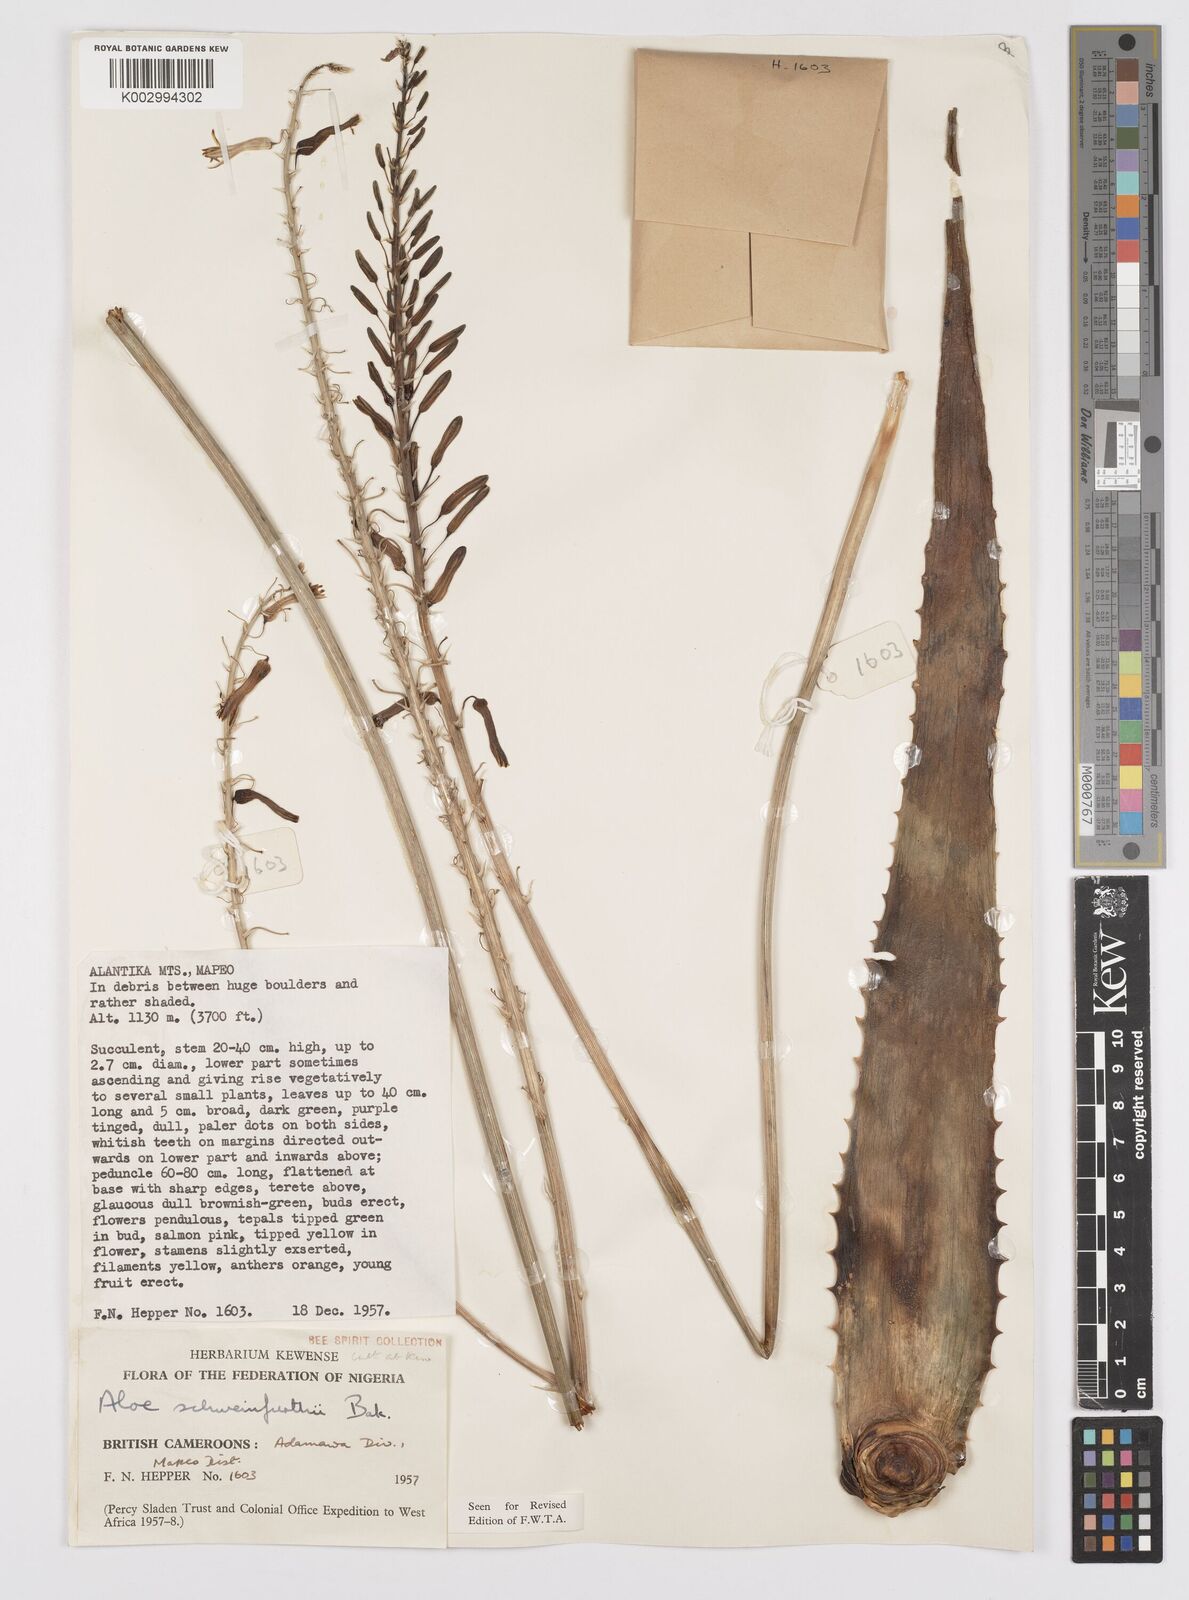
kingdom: Plantae
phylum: Tracheophyta
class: Liliopsida
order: Asparagales
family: Asphodelaceae
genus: Aloe
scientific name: Aloe schweinfurthii
